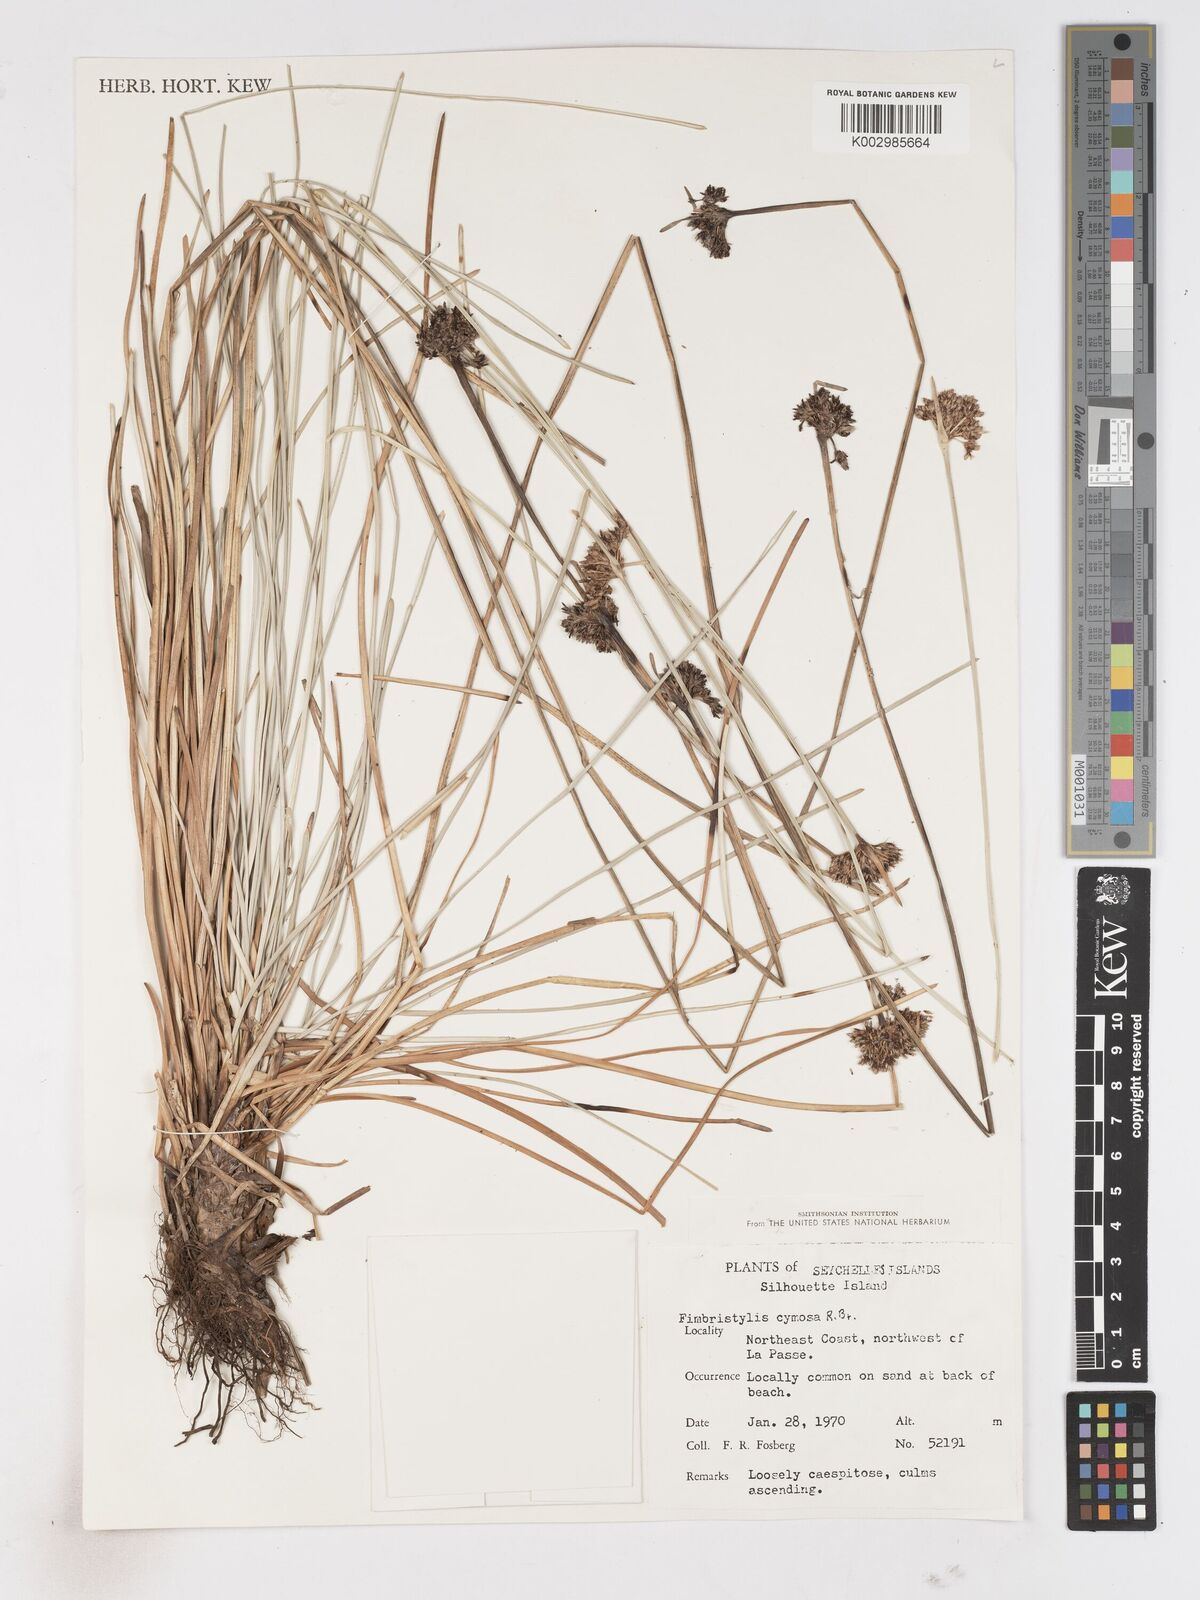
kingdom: Plantae
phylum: Tracheophyta
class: Liliopsida
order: Poales
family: Cyperaceae
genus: Fimbristylis
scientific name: Fimbristylis cymosa
